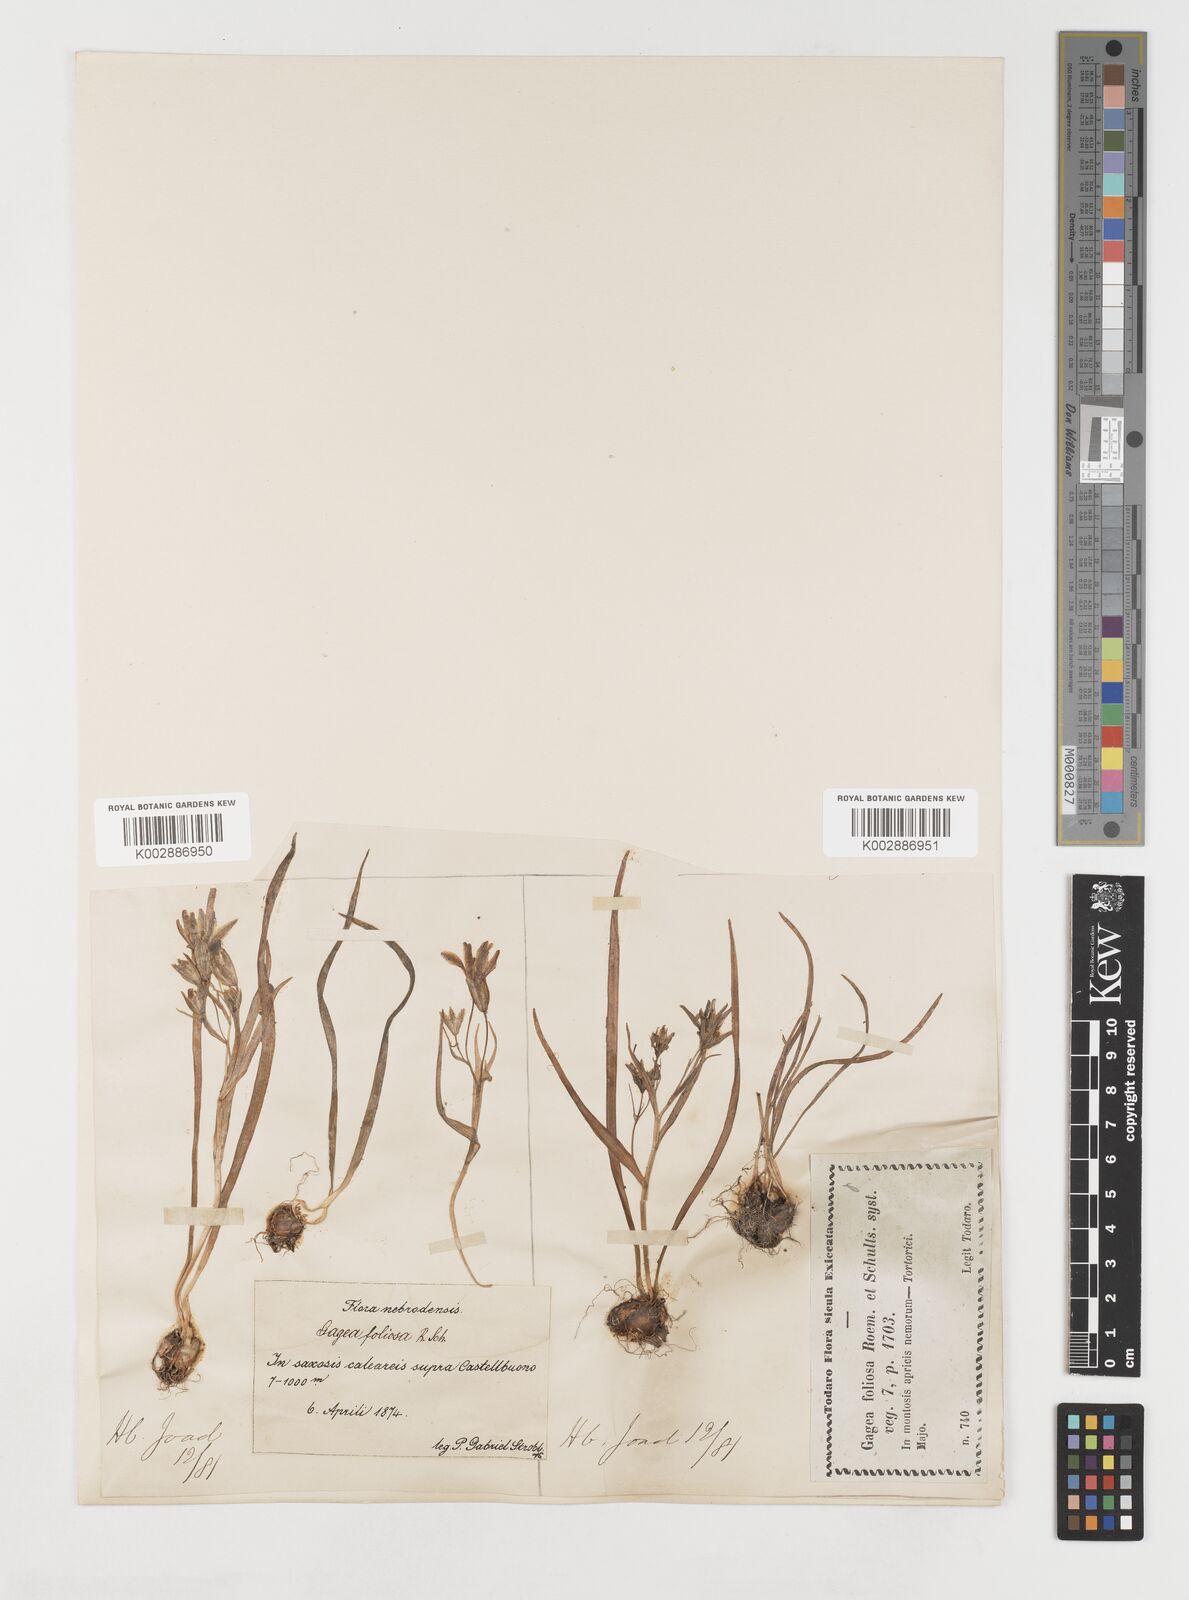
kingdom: Plantae
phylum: Tracheophyta
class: Liliopsida
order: Liliales
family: Liliaceae
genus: Gagea
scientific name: Gagea foliosa
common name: Leafy gagea
